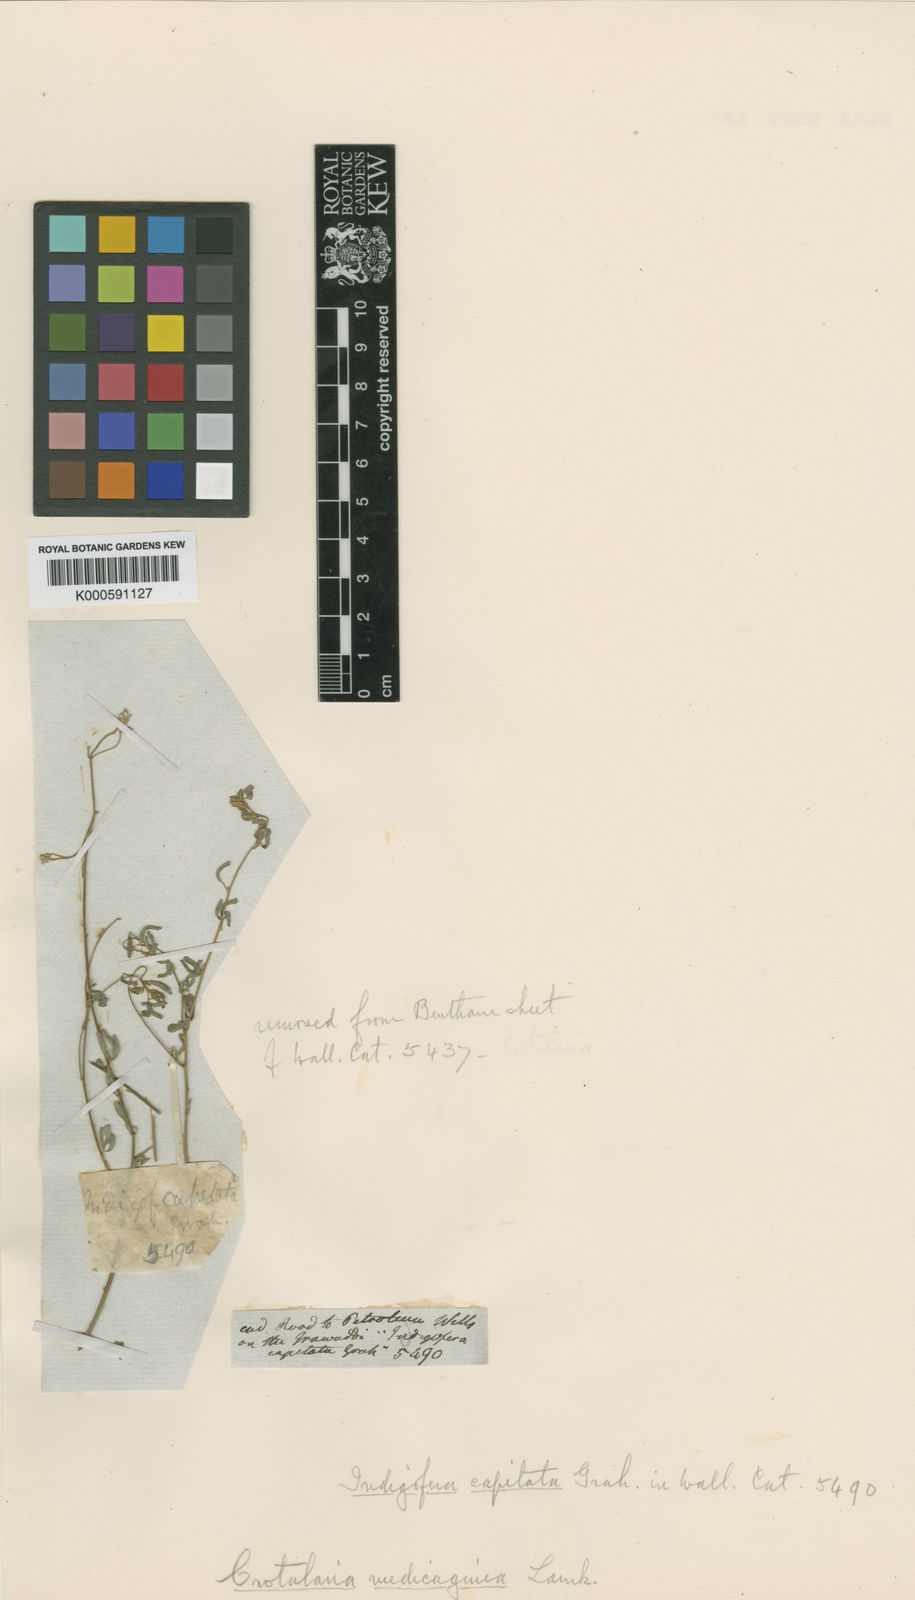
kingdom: Plantae
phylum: Tracheophyta
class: Magnoliopsida
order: Fabales
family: Fabaceae
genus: Crotalaria
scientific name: Crotalaria medicaginea
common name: Trefoil rattlepod
